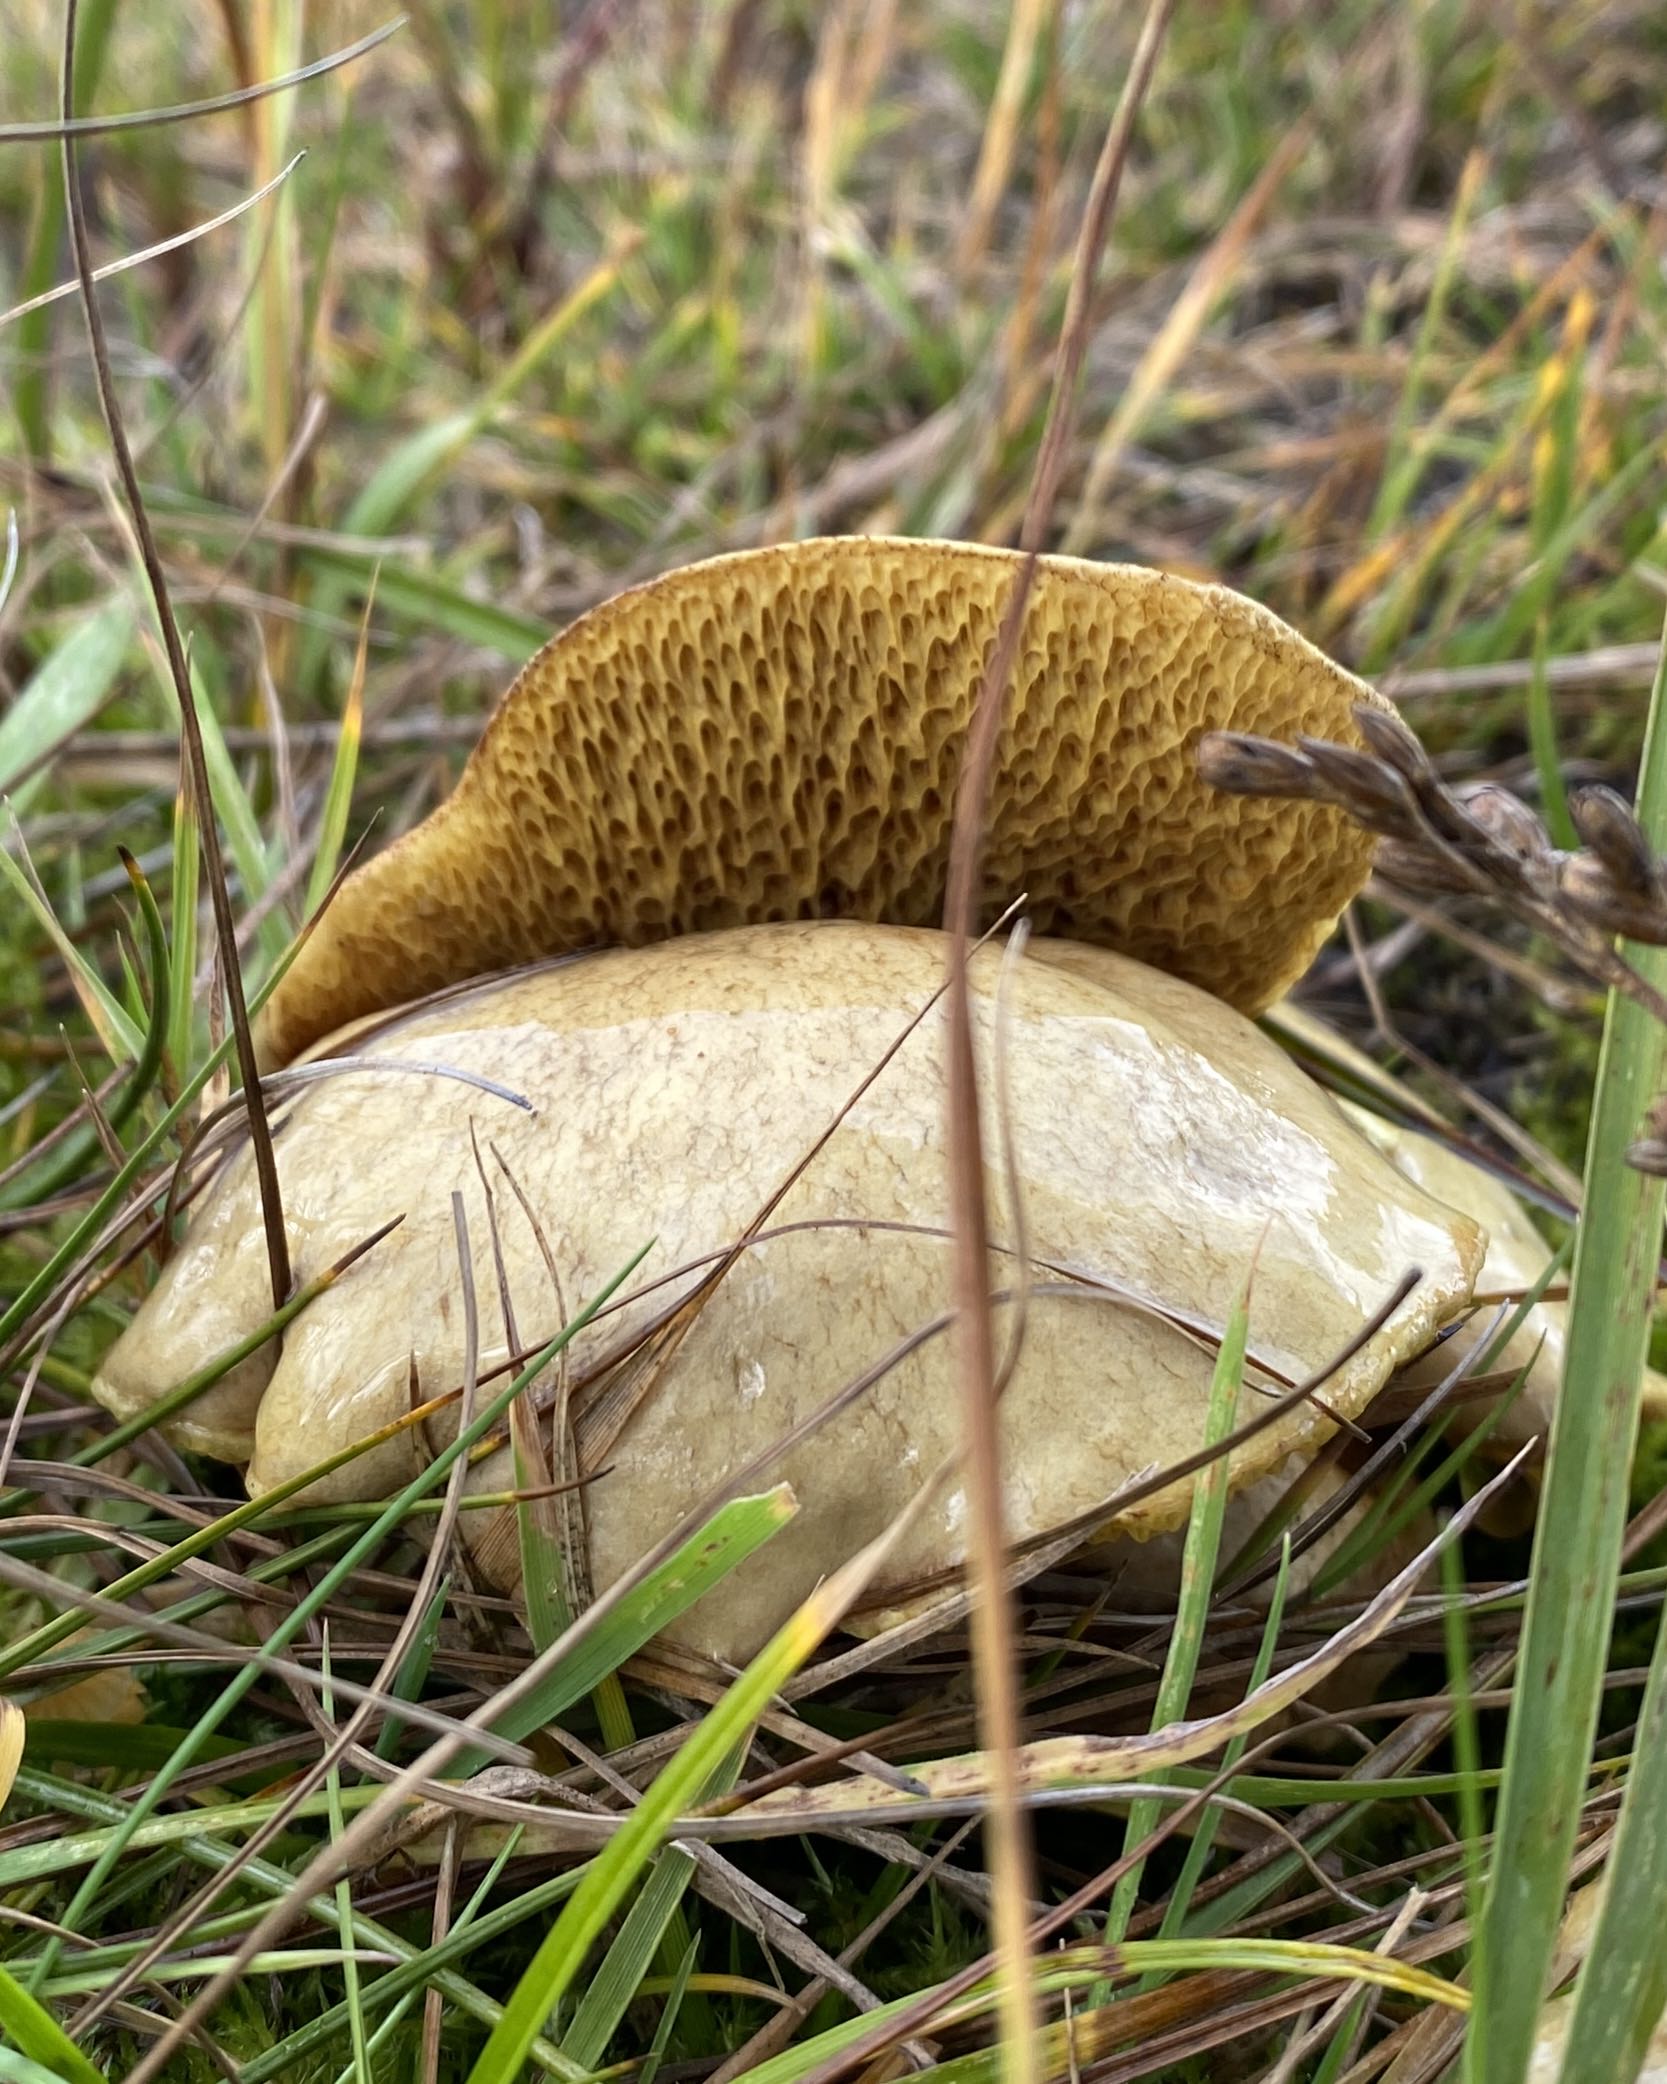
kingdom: Fungi
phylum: Basidiomycota
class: Agaricomycetes
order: Boletales
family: Suillaceae
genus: Suillus
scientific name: Suillus bovinus
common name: grovporet slimrørhat
